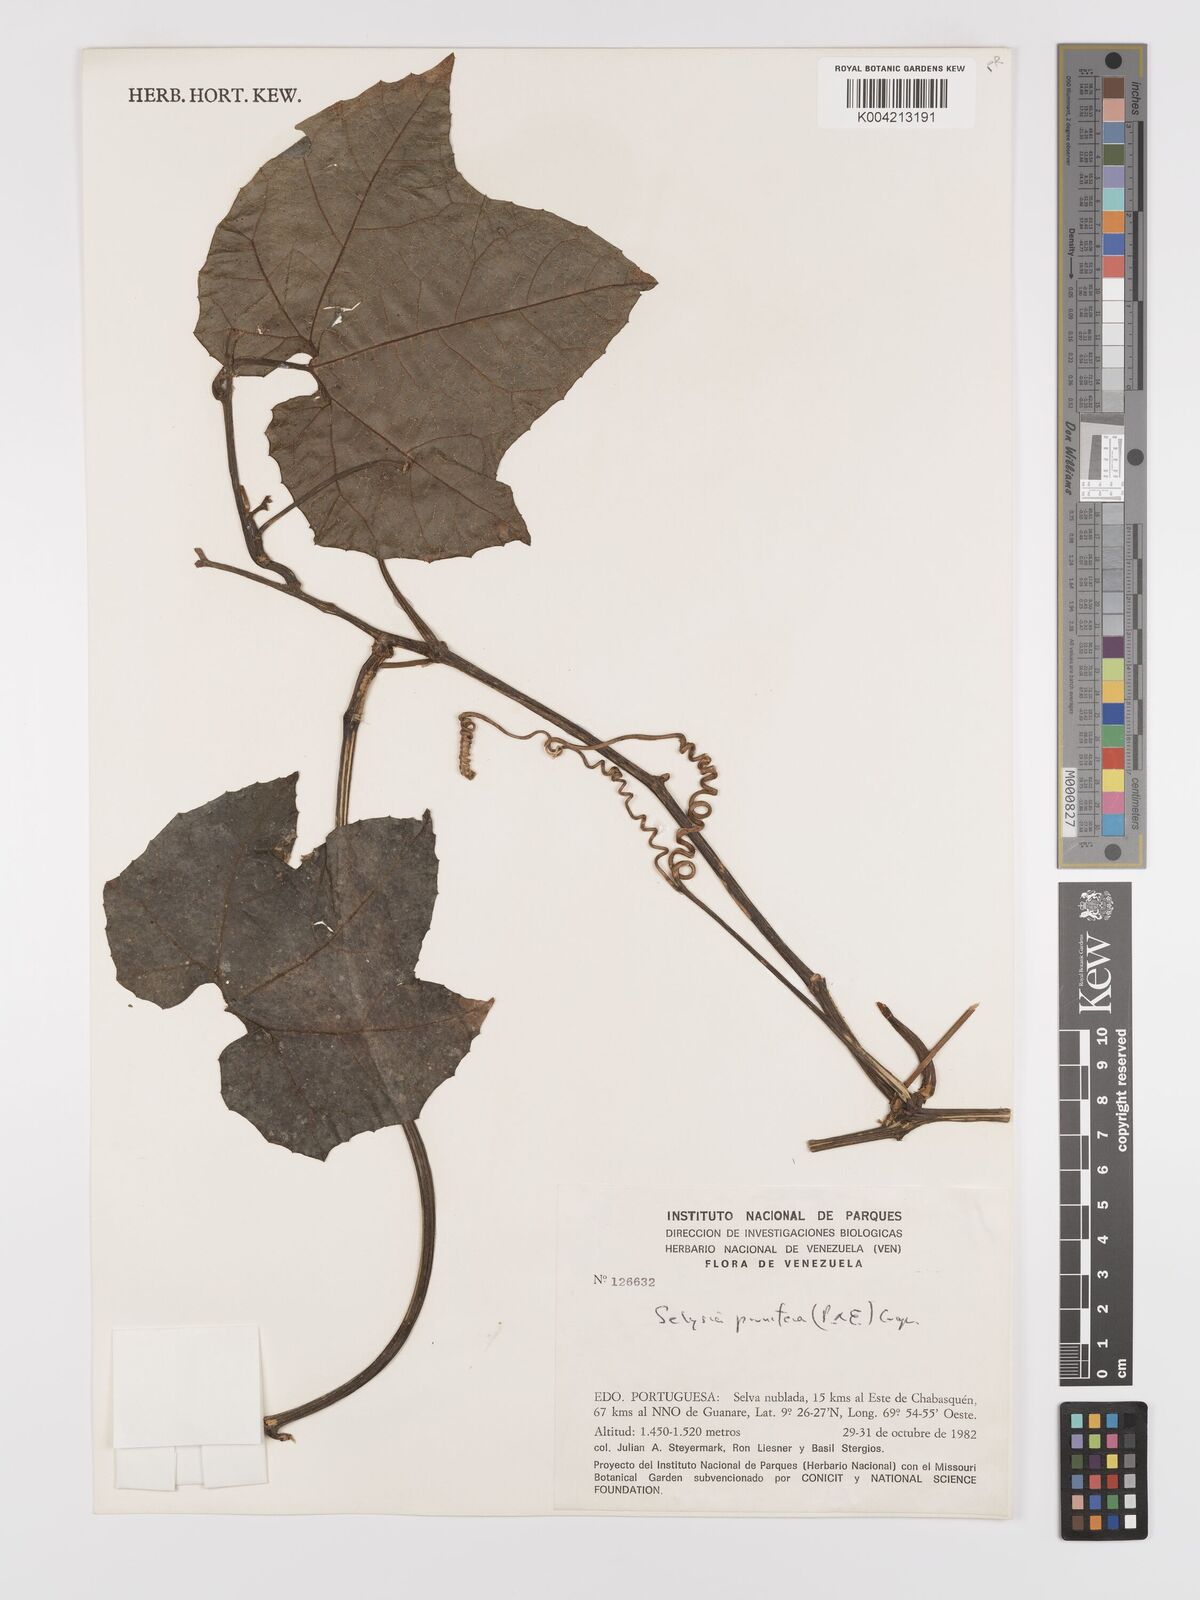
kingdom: Plantae
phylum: Tracheophyta
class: Magnoliopsida
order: Cucurbitales
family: Cucurbitaceae
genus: Cayaponia
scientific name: Cayaponia prunifera
